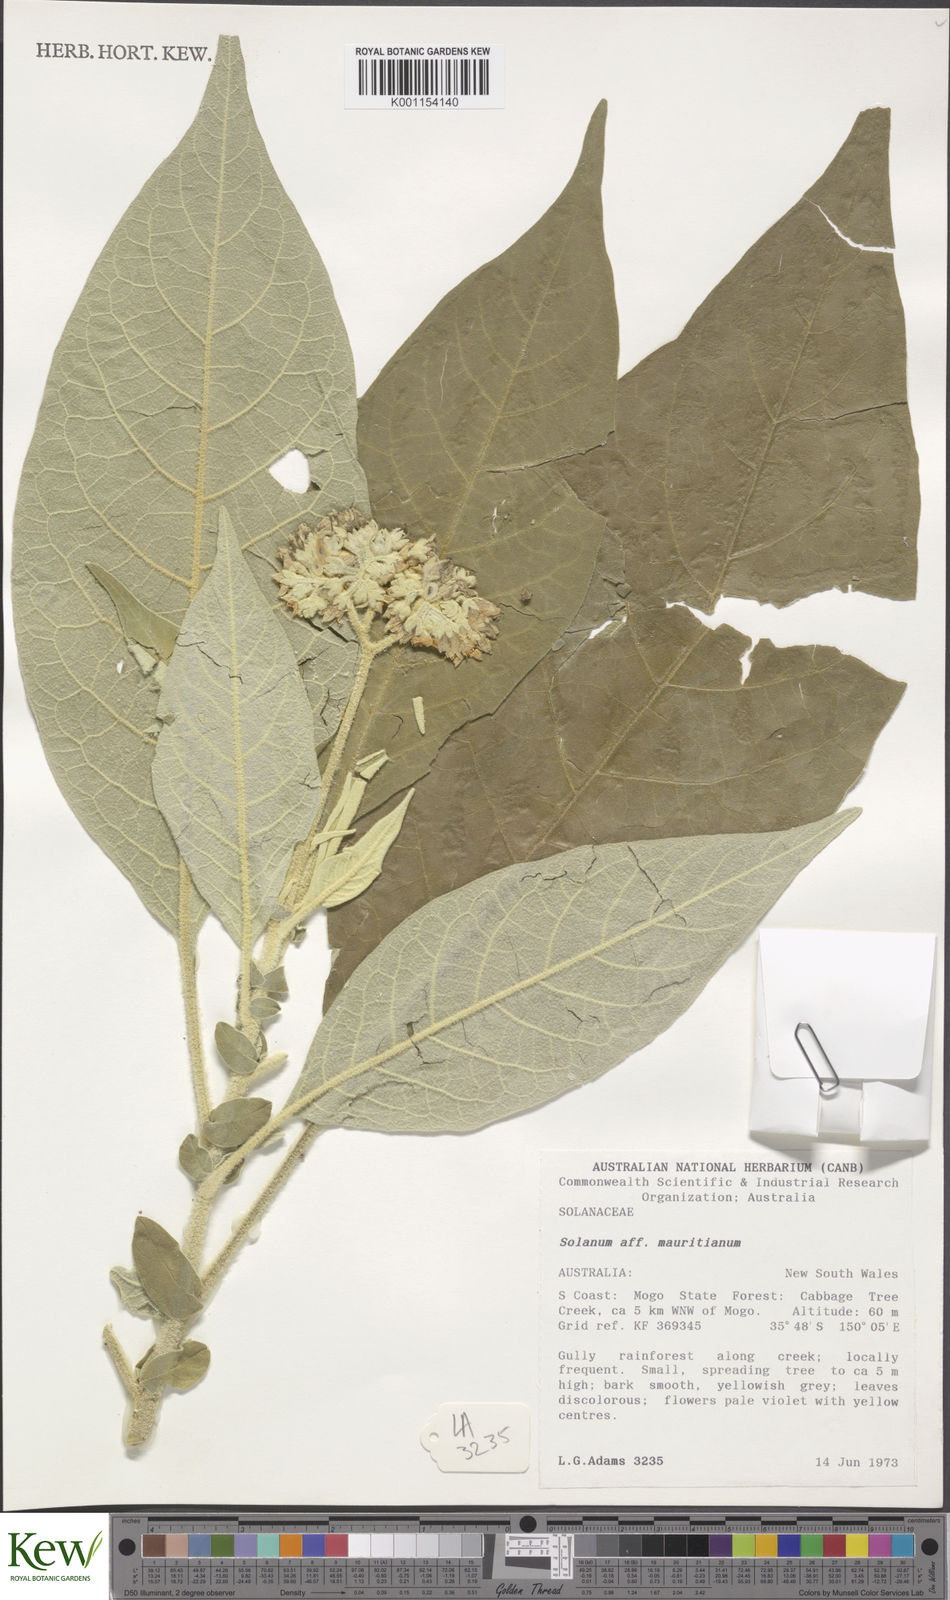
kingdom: Plantae
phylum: Tracheophyta
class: Magnoliopsida
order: Solanales
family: Solanaceae
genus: Solanum
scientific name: Solanum mauritianum
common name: Earleaf nightshade
